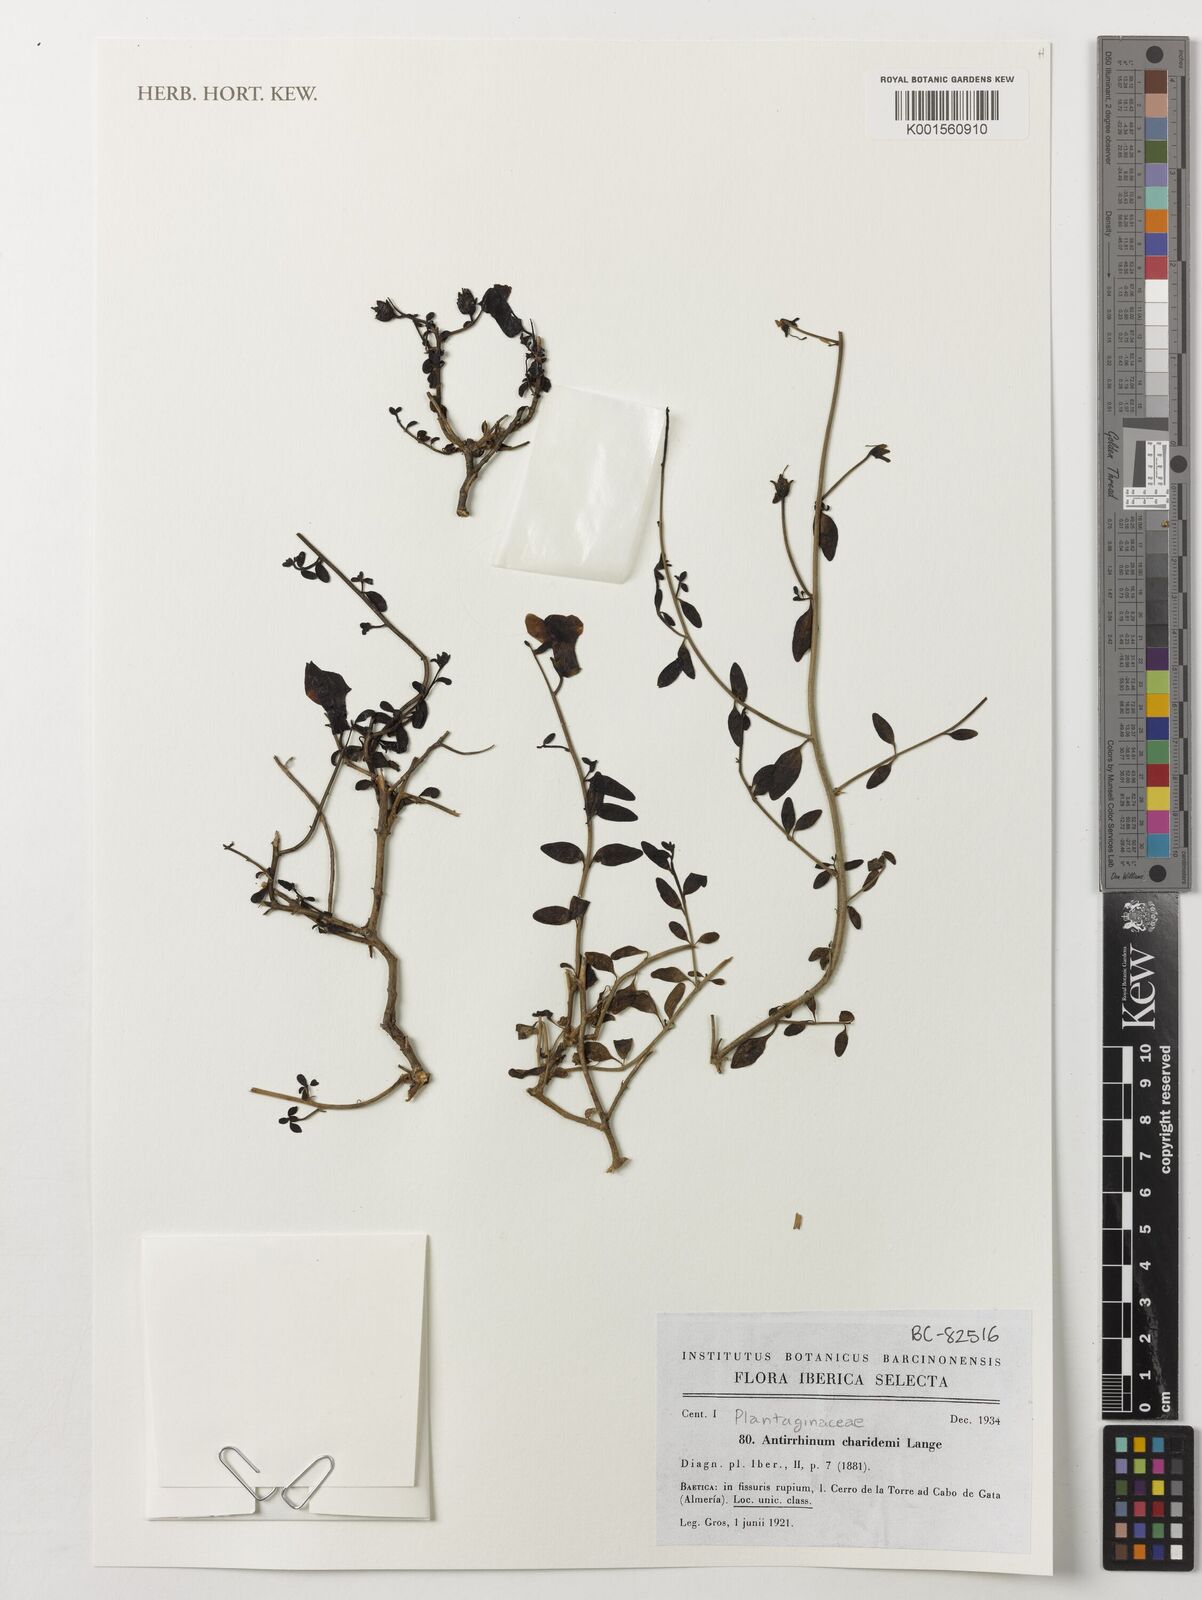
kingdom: Plantae
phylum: Tracheophyta
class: Magnoliopsida
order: Lamiales
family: Plantaginaceae
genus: Antirrhinum
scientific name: Antirrhinum charidemi
